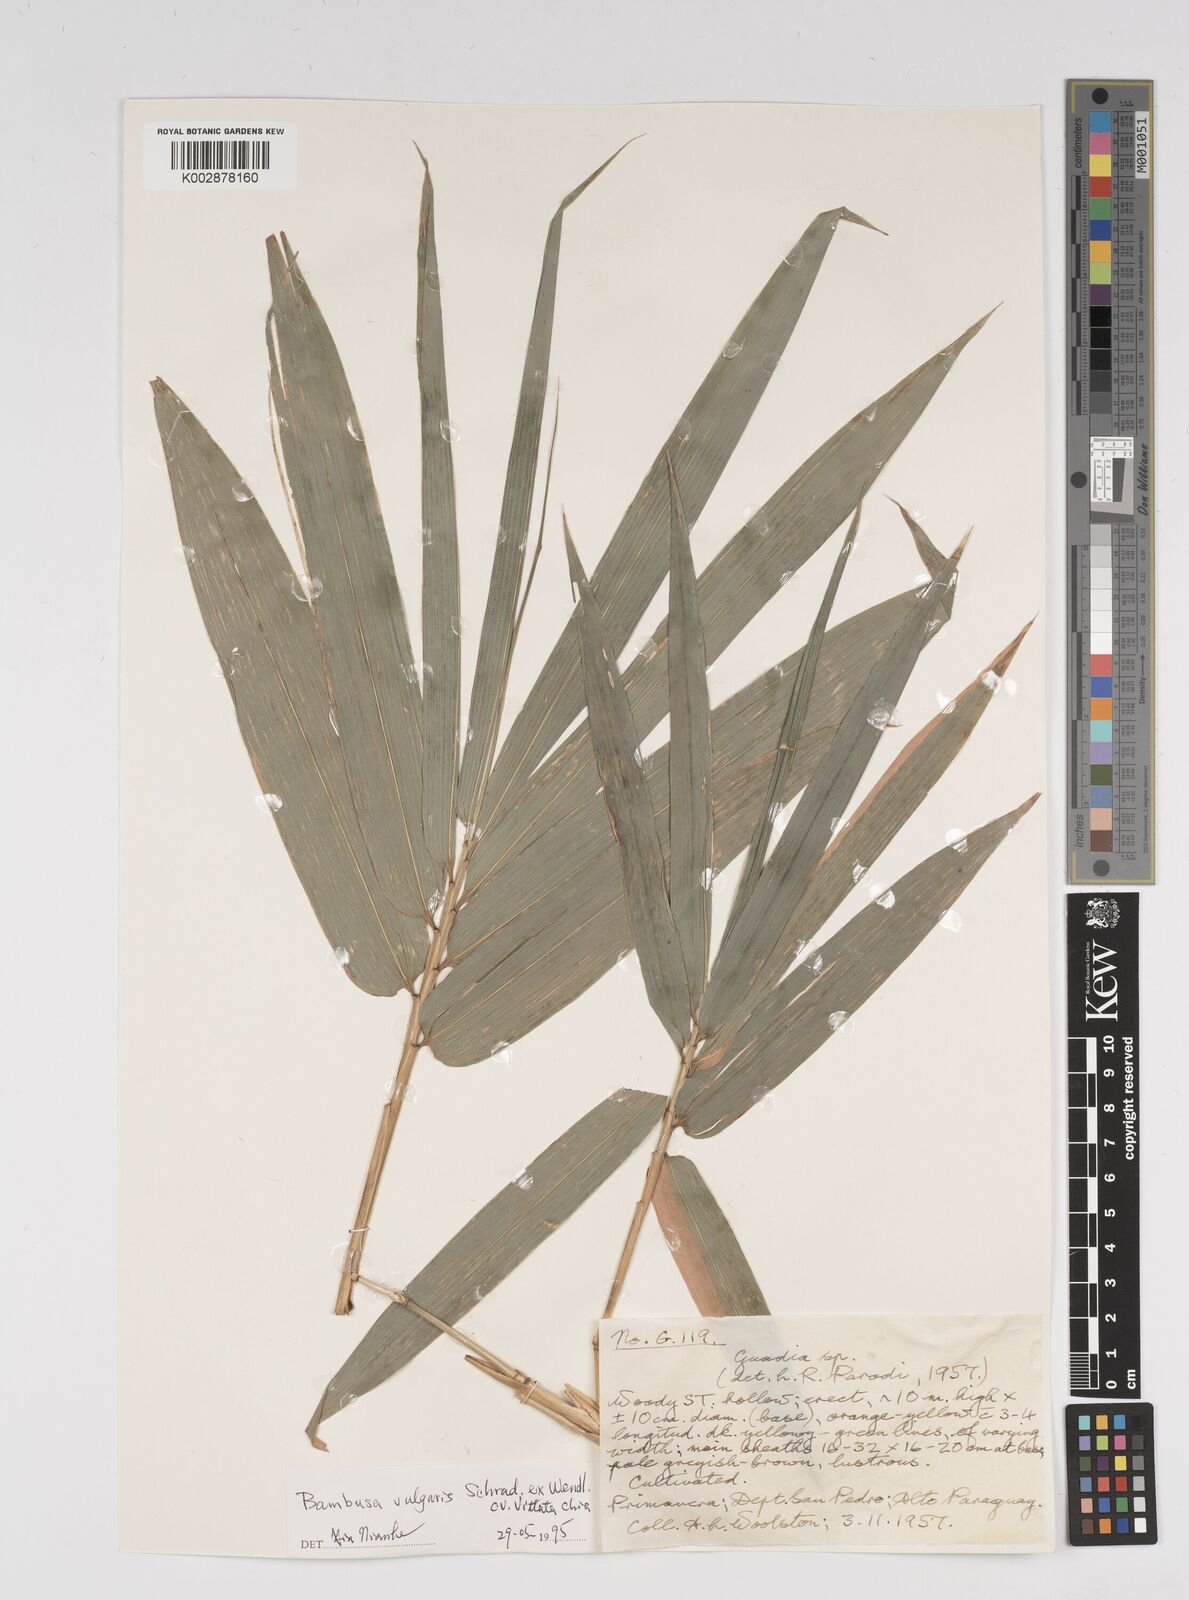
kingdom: Plantae
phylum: Tracheophyta
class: Liliopsida
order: Poales
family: Poaceae
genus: Bambusa
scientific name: Bambusa
